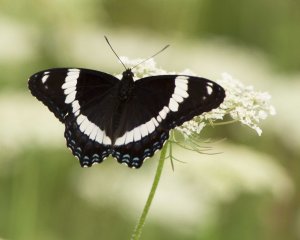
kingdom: Animalia
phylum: Arthropoda
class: Insecta
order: Lepidoptera
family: Nymphalidae
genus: Limenitis
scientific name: Limenitis arthemis
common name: Red-spotted Admiral
